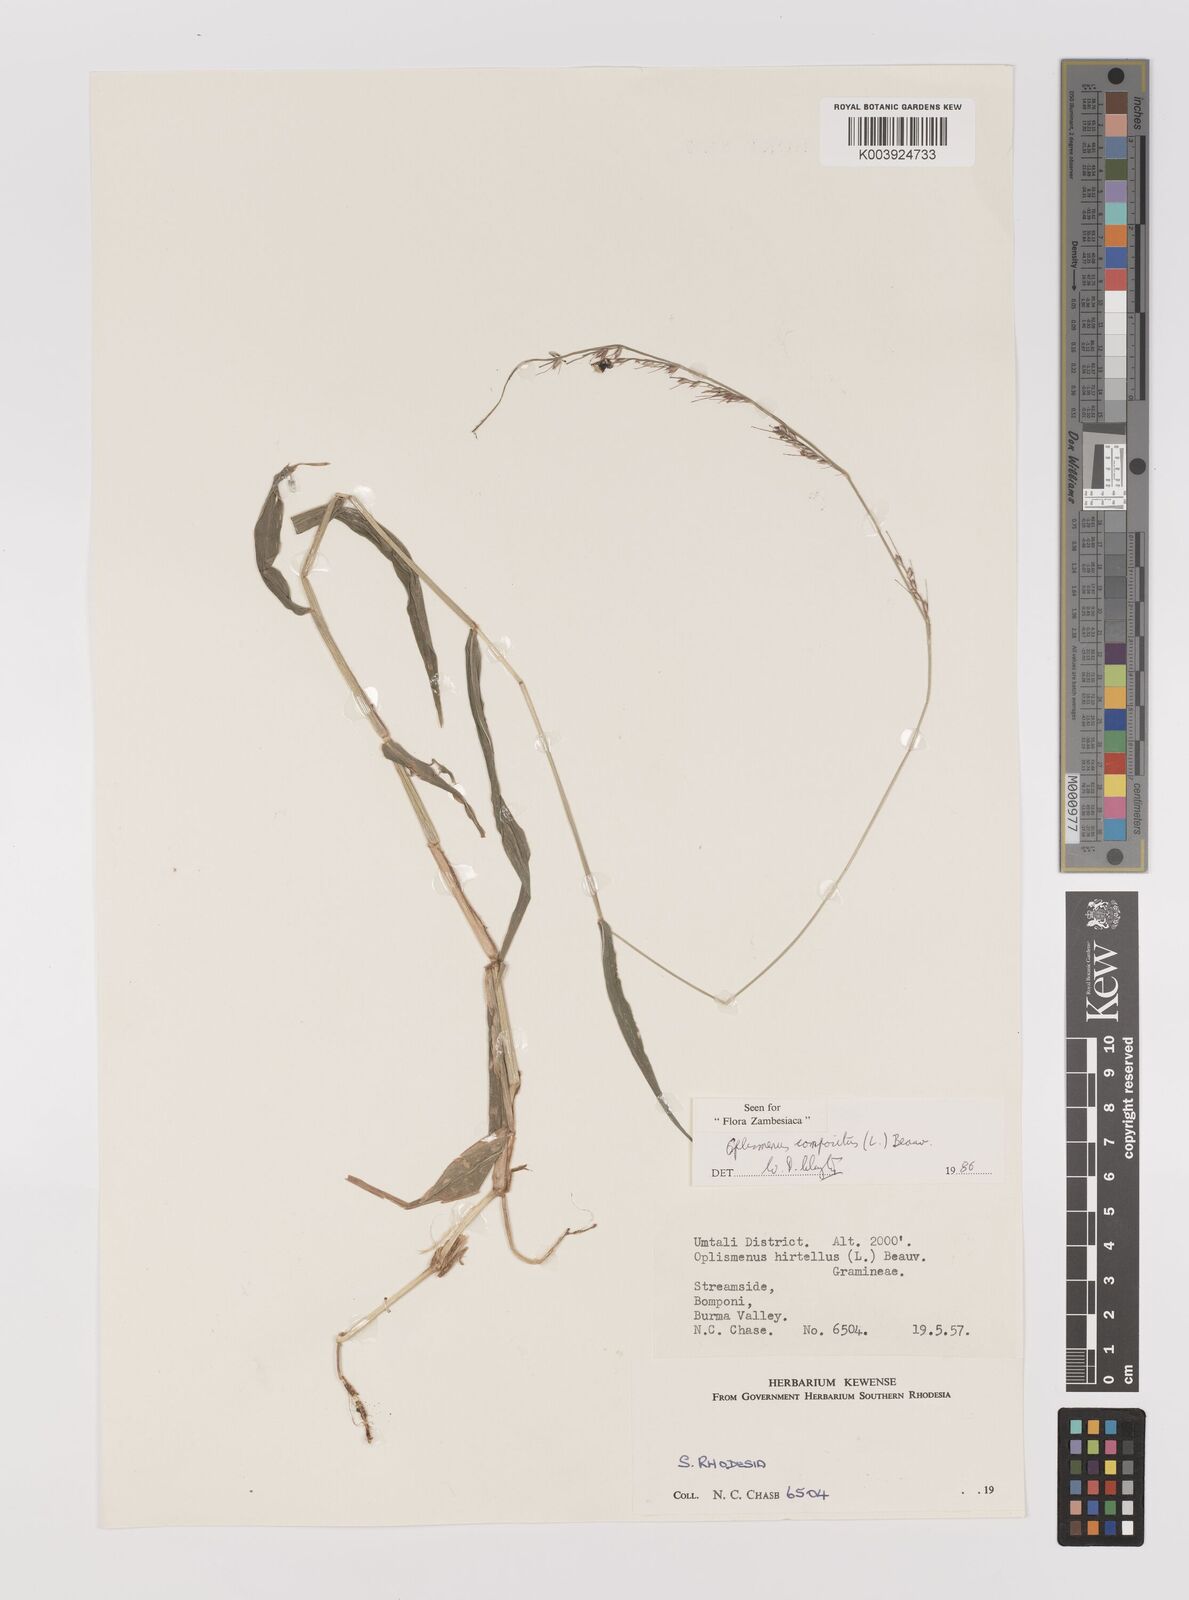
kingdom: Plantae
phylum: Tracheophyta
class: Liliopsida
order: Poales
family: Poaceae
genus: Oplismenus
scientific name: Oplismenus compositus
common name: Running mountain grass
